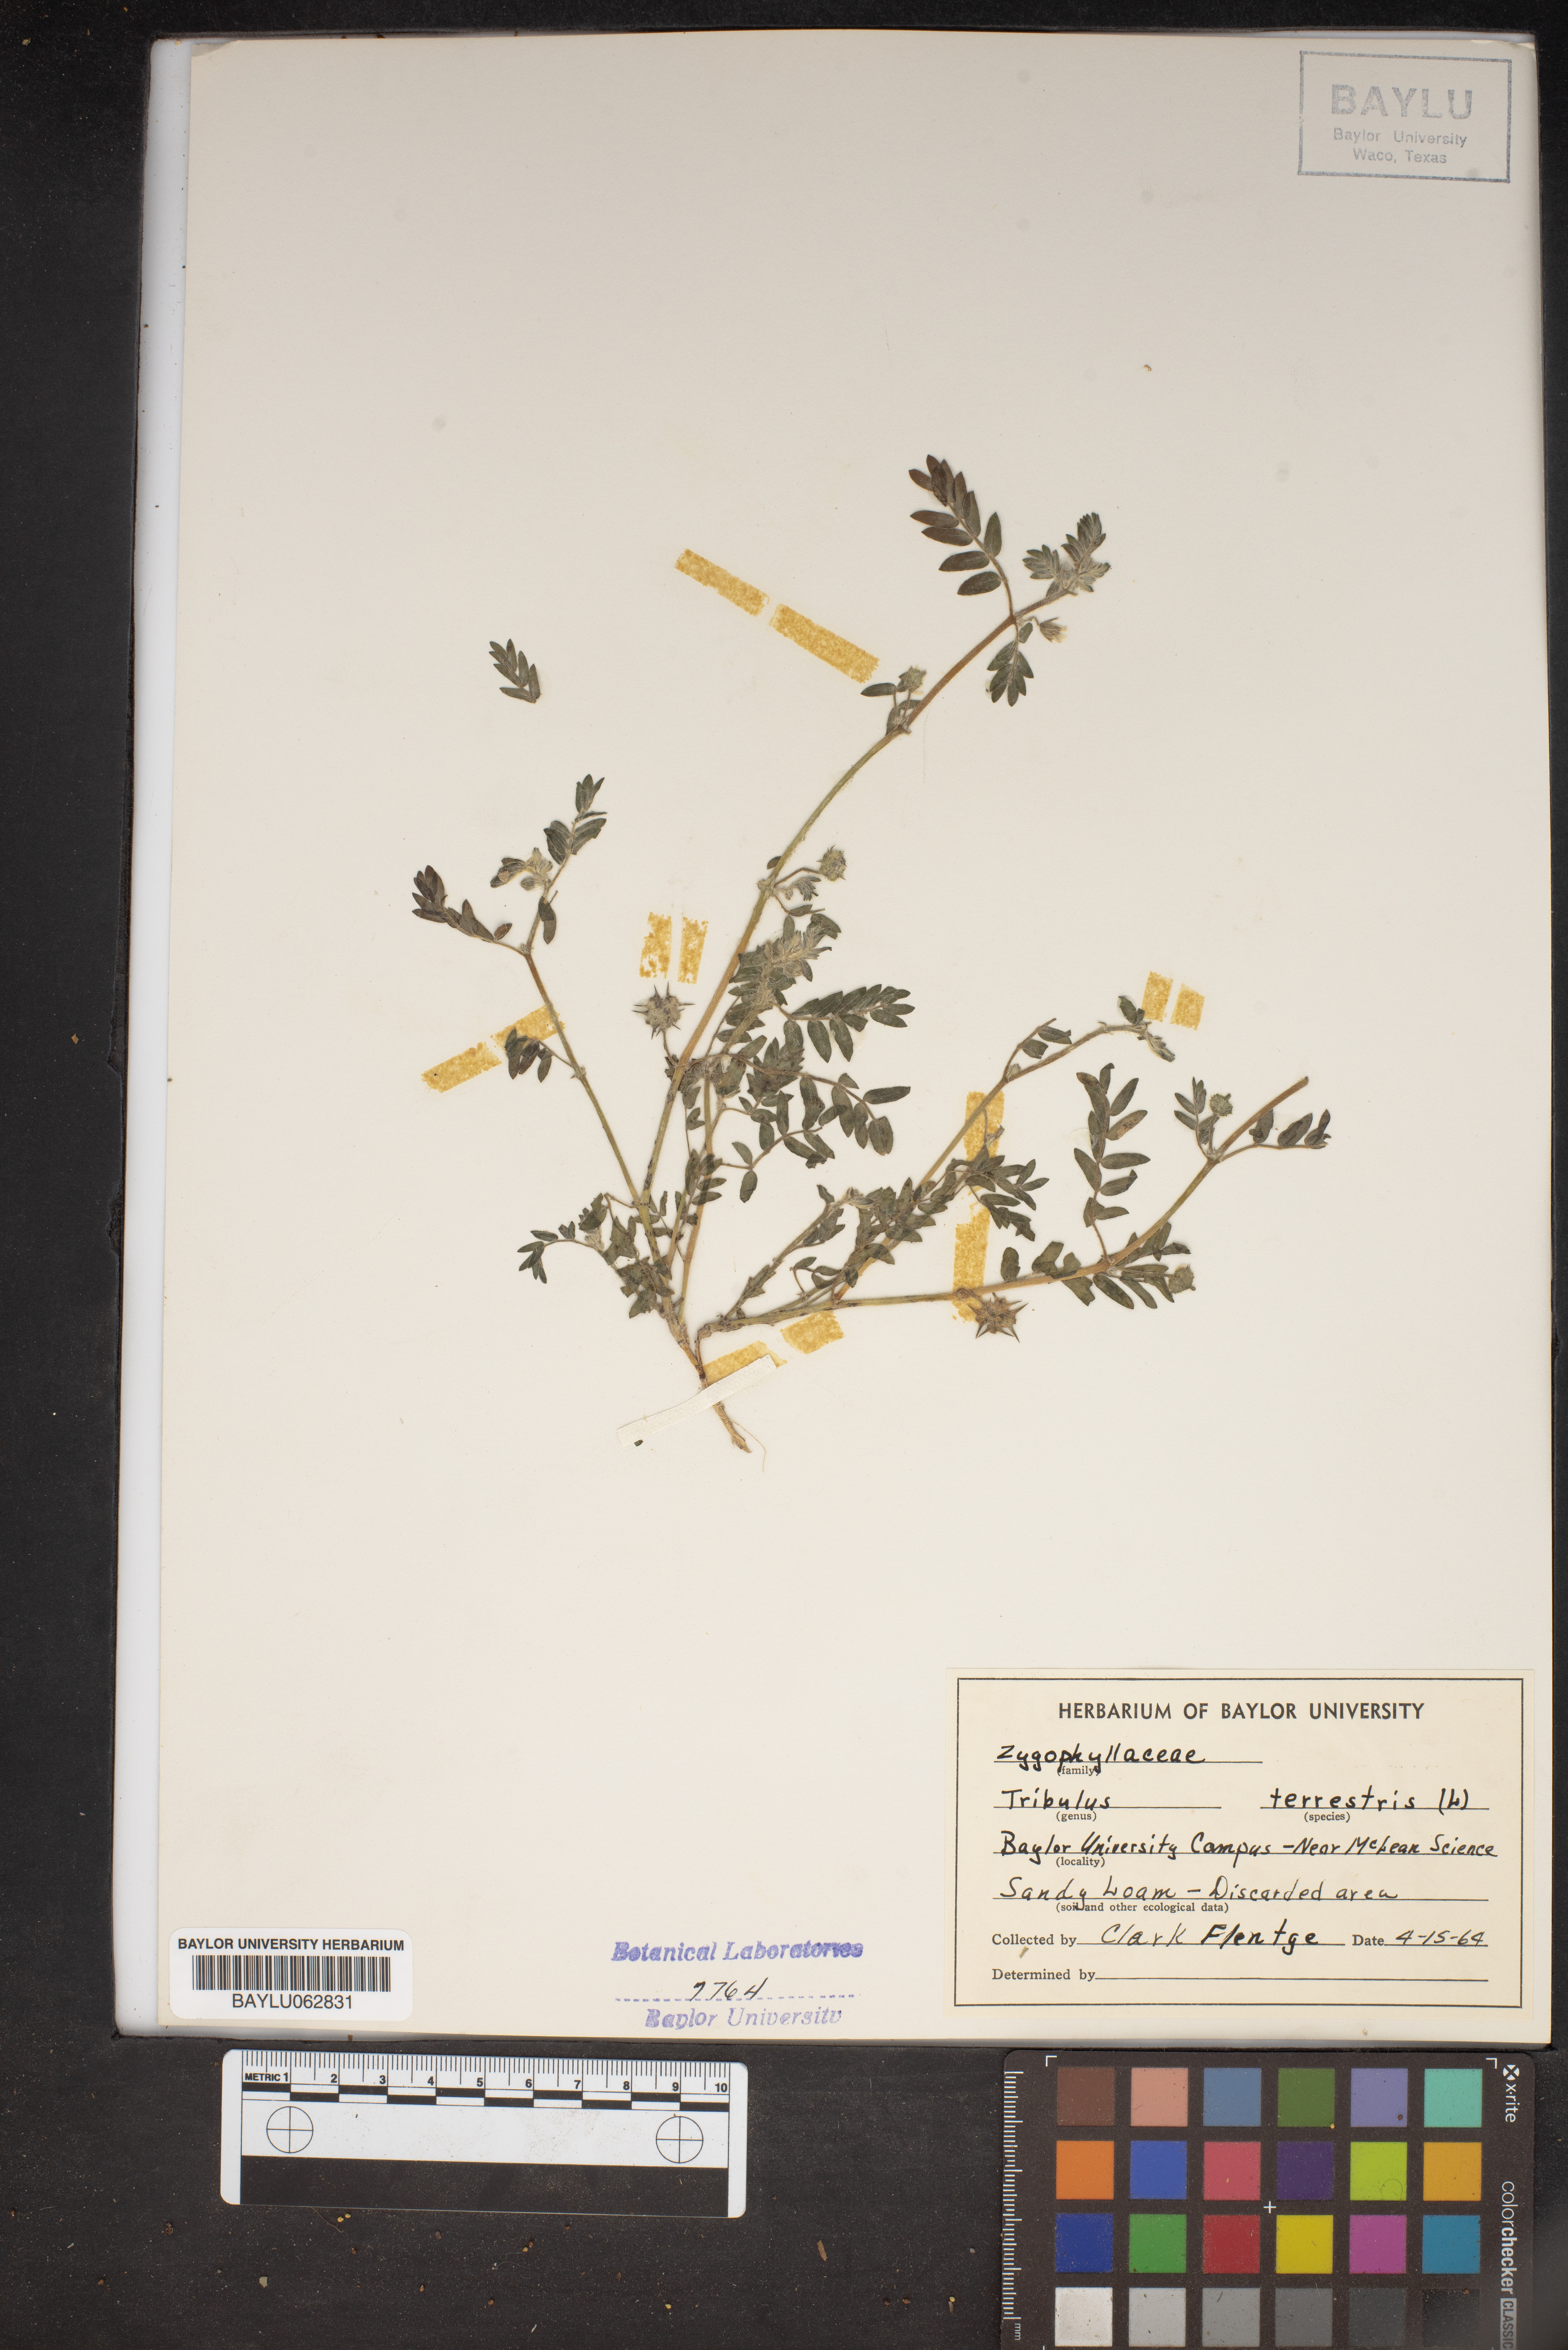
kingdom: Plantae
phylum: Tracheophyta
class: Magnoliopsida
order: Zygophyllales
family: Zygophyllaceae
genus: Tribulus
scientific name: Tribulus terrestris
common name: Puncturevine
